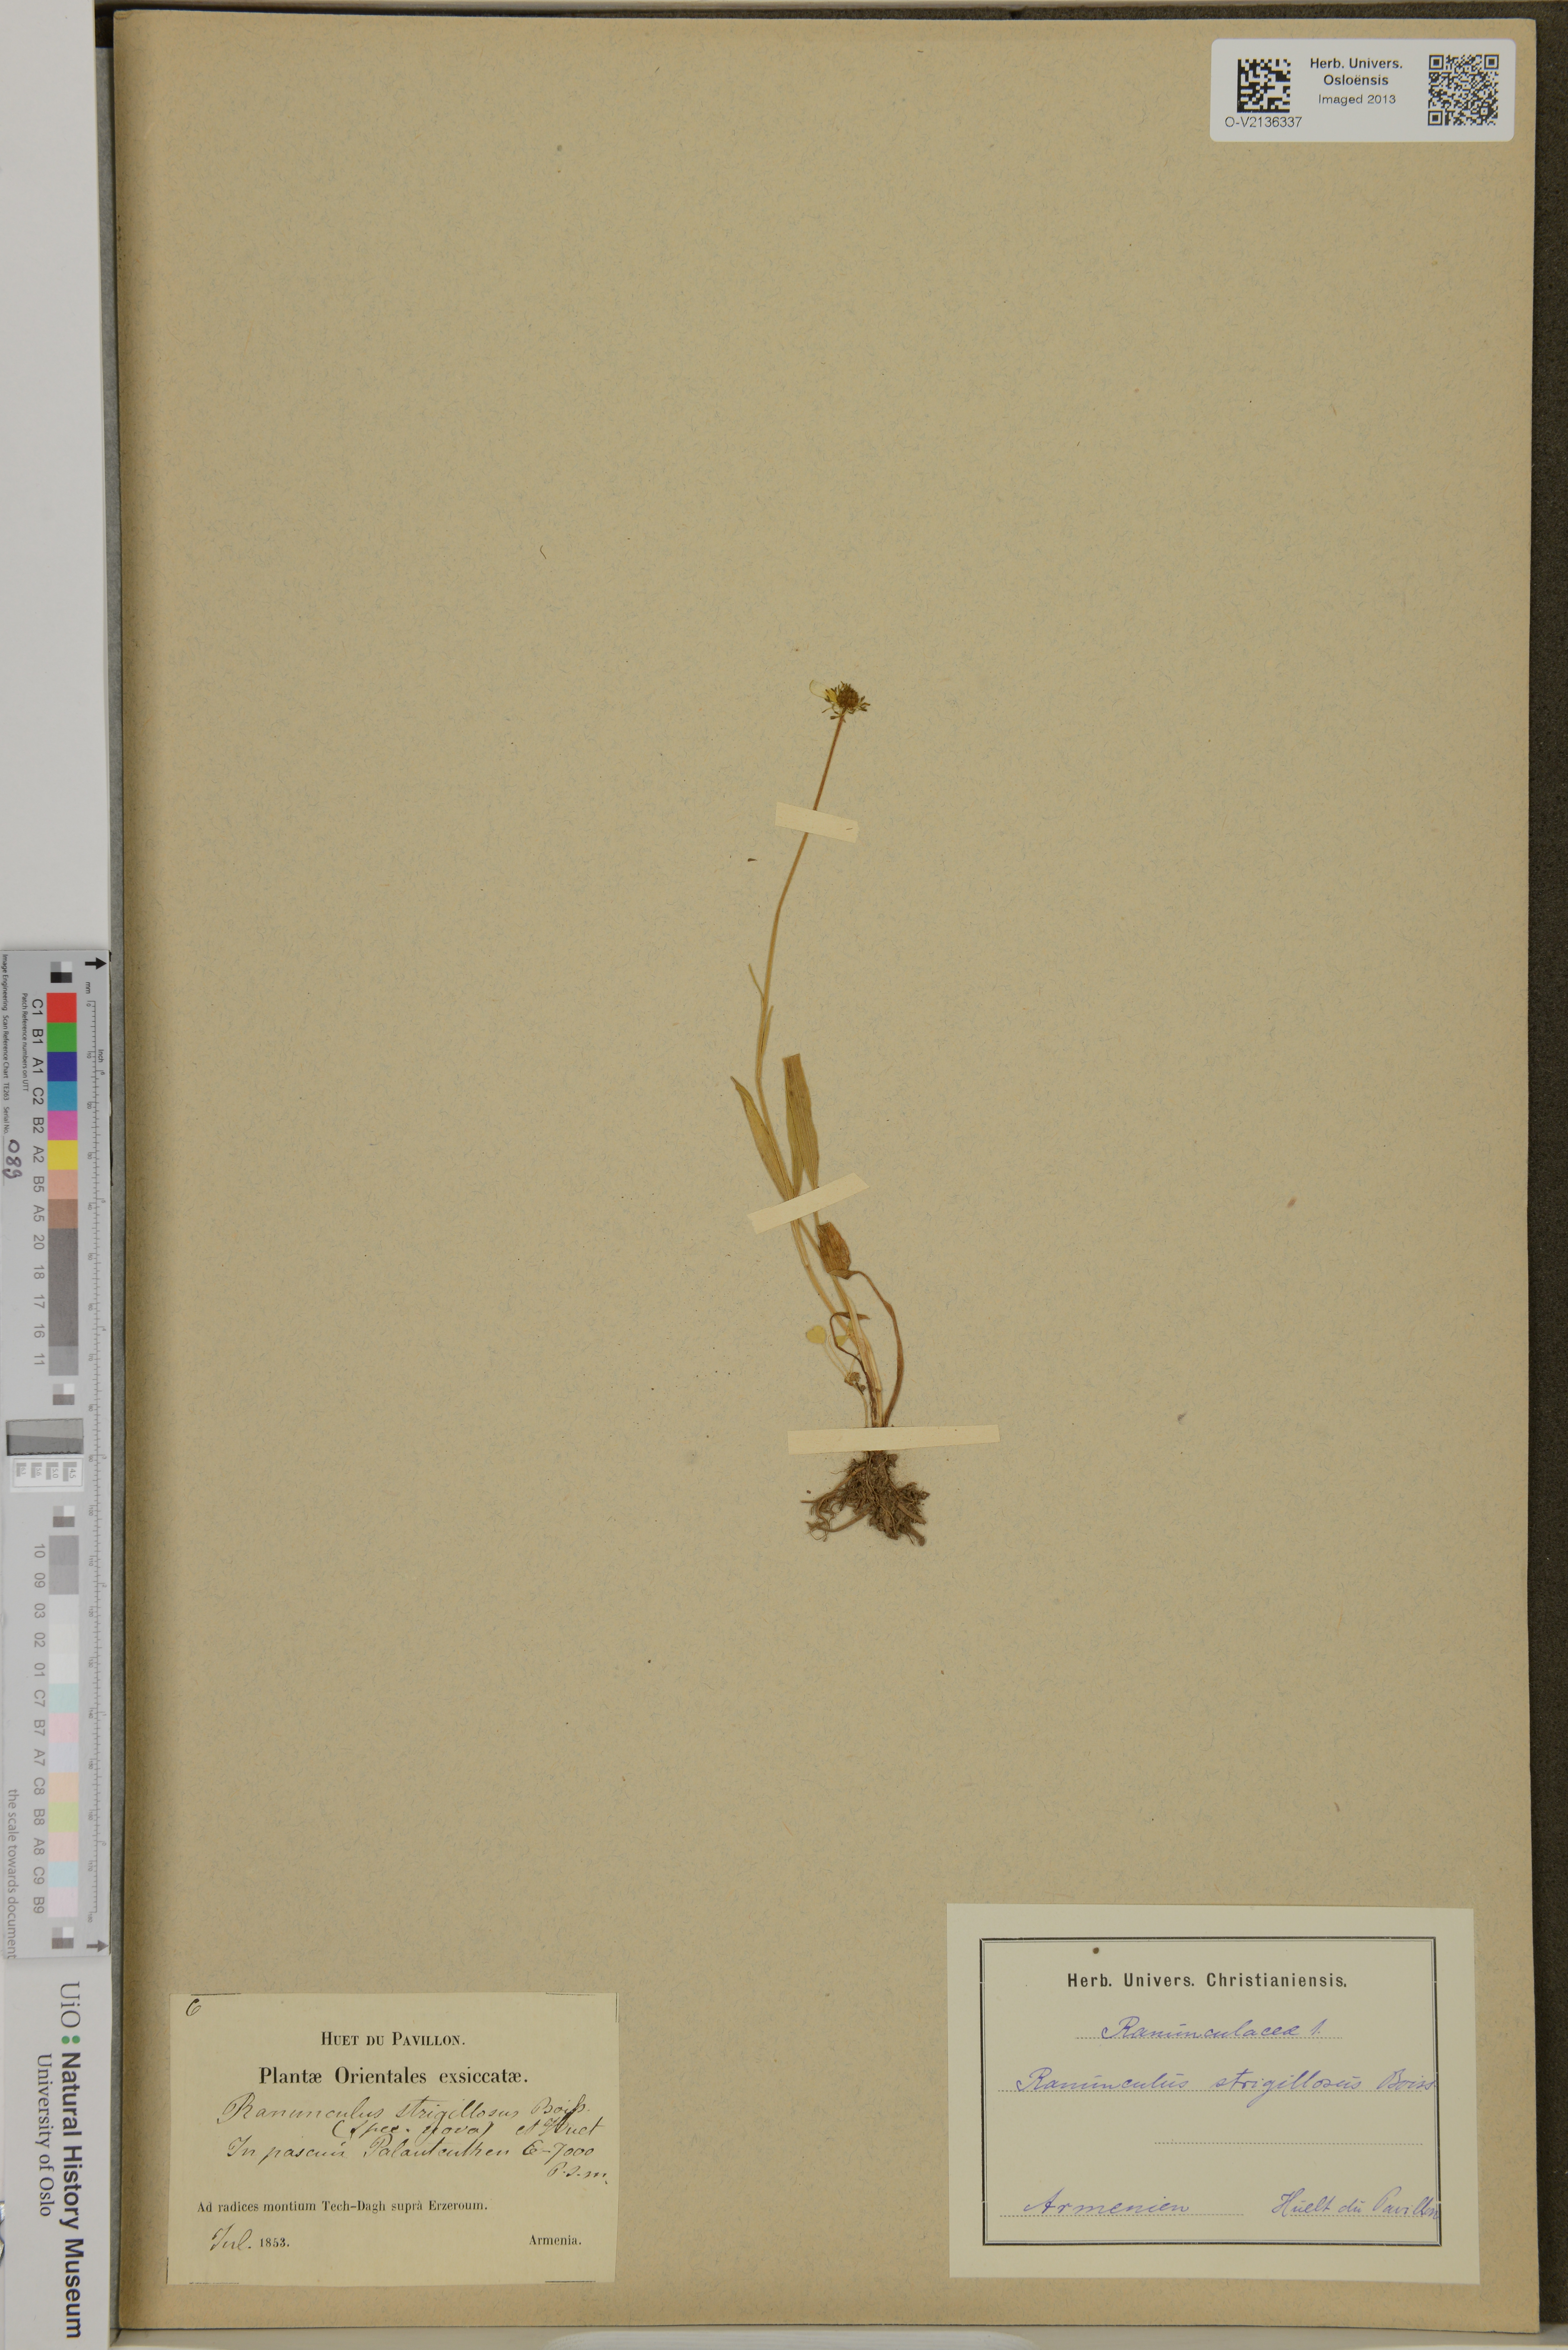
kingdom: Plantae
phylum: Tracheophyta
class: Magnoliopsida
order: Ranunculales
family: Ranunculaceae
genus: Ranunculus
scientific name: Ranunculus strigillosus
